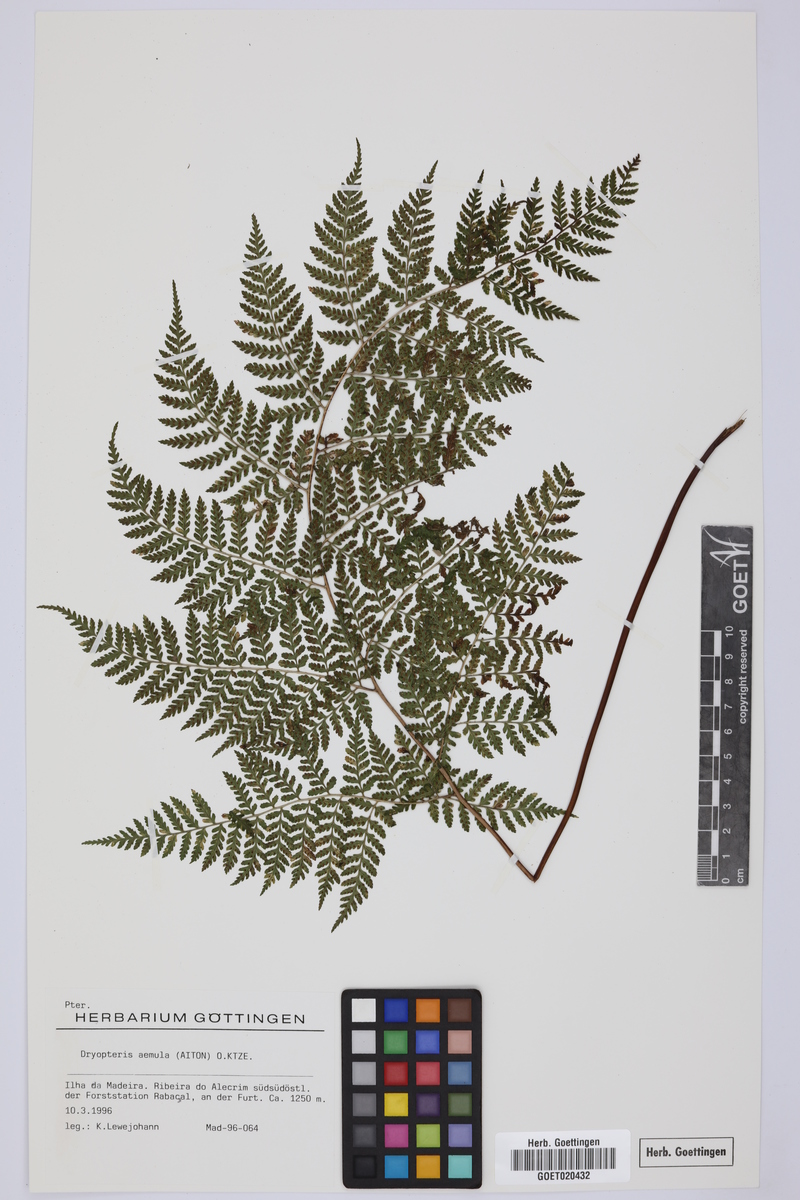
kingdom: Plantae
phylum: Tracheophyta
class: Polypodiopsida
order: Polypodiales
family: Dryopteridaceae
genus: Dryopteris
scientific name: Dryopteris aemula
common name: Hay-scented buckler-fern
